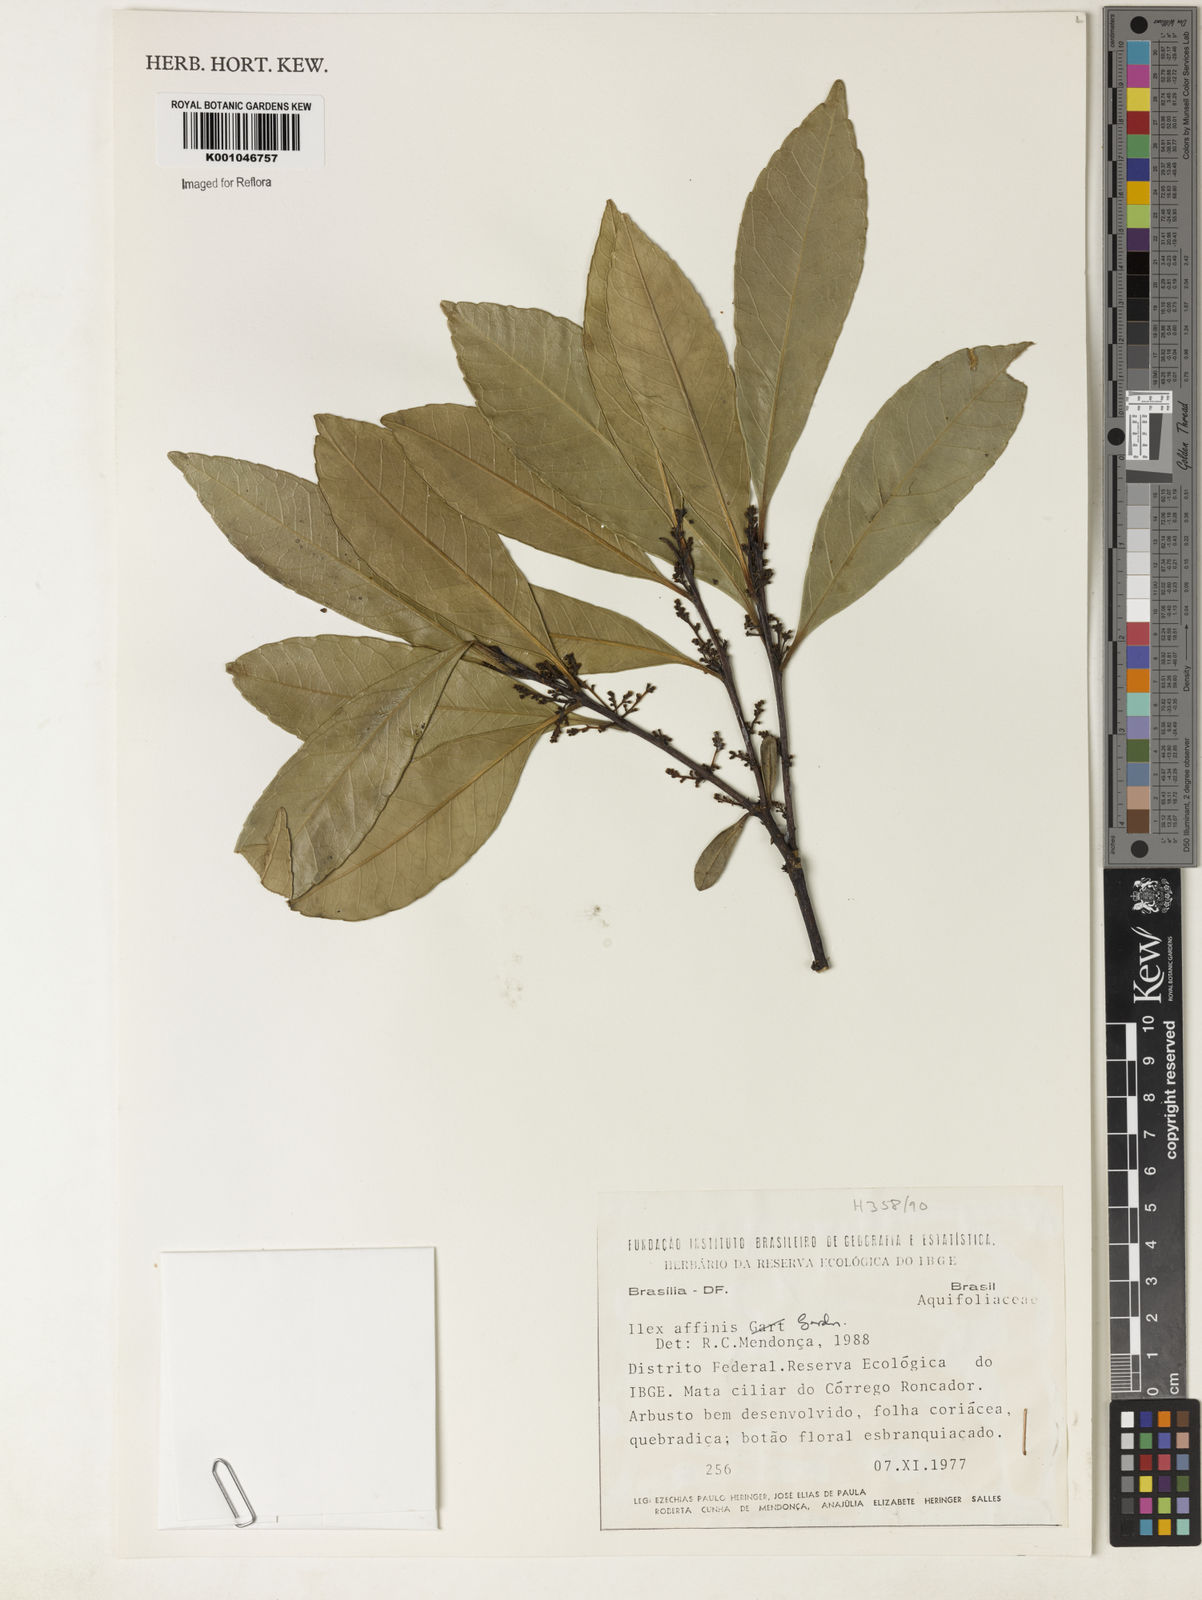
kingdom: Plantae
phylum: Tracheophyta
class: Magnoliopsida
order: Aquifoliales
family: Aquifoliaceae
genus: Ilex
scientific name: Ilex affinis
